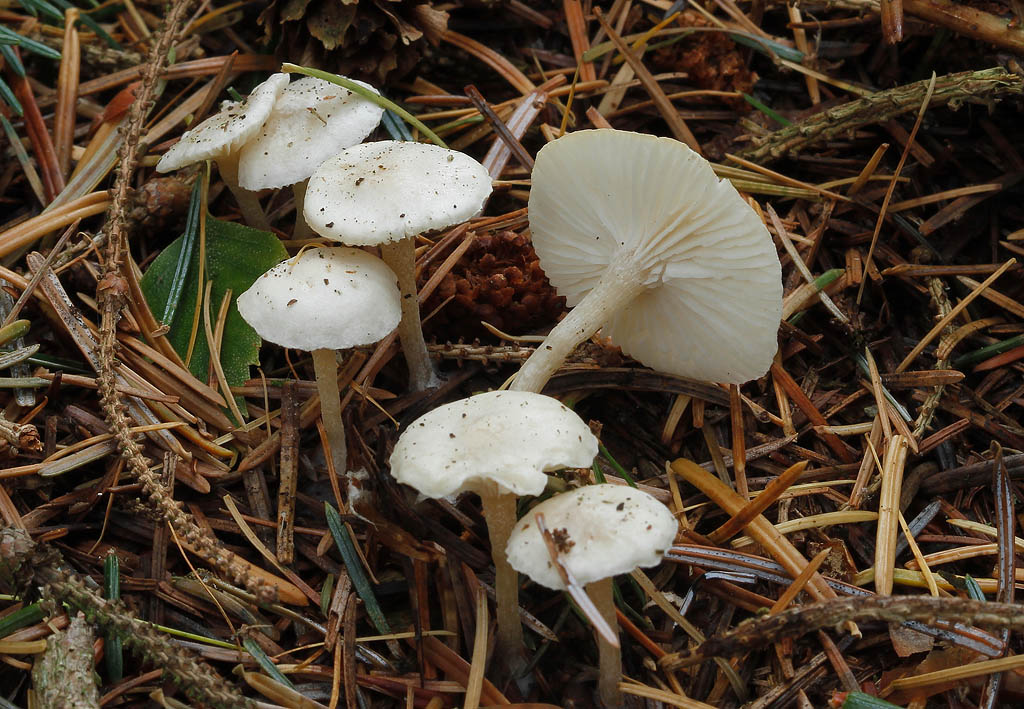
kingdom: Fungi
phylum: Basidiomycota
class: Agaricomycetes
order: Agaricales
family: Tricholomataceae
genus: Leucocybe
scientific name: Leucocybe candicans
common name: kridt-tragthat
